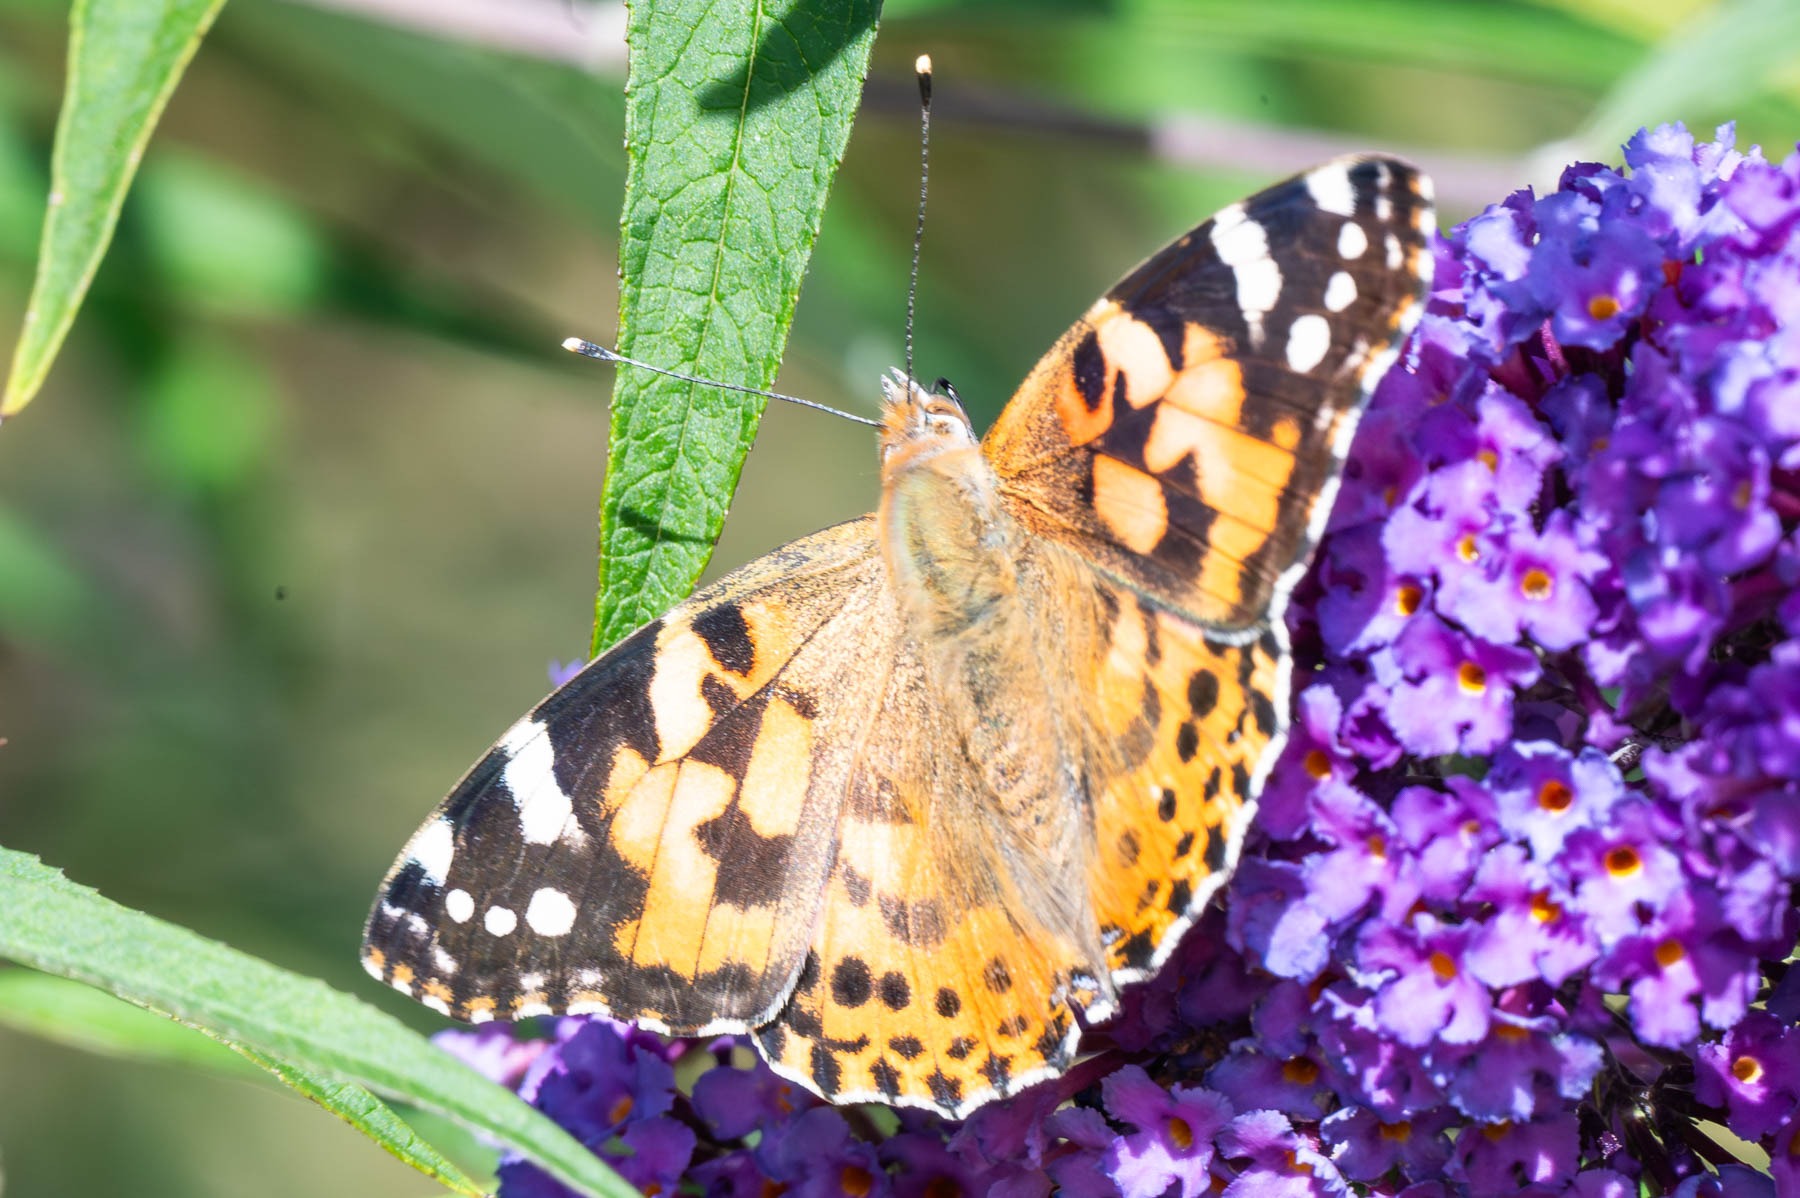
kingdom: Animalia
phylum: Arthropoda
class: Insecta
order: Lepidoptera
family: Nymphalidae
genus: Vanessa
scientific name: Vanessa cardui
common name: Tidselsommerfugl
